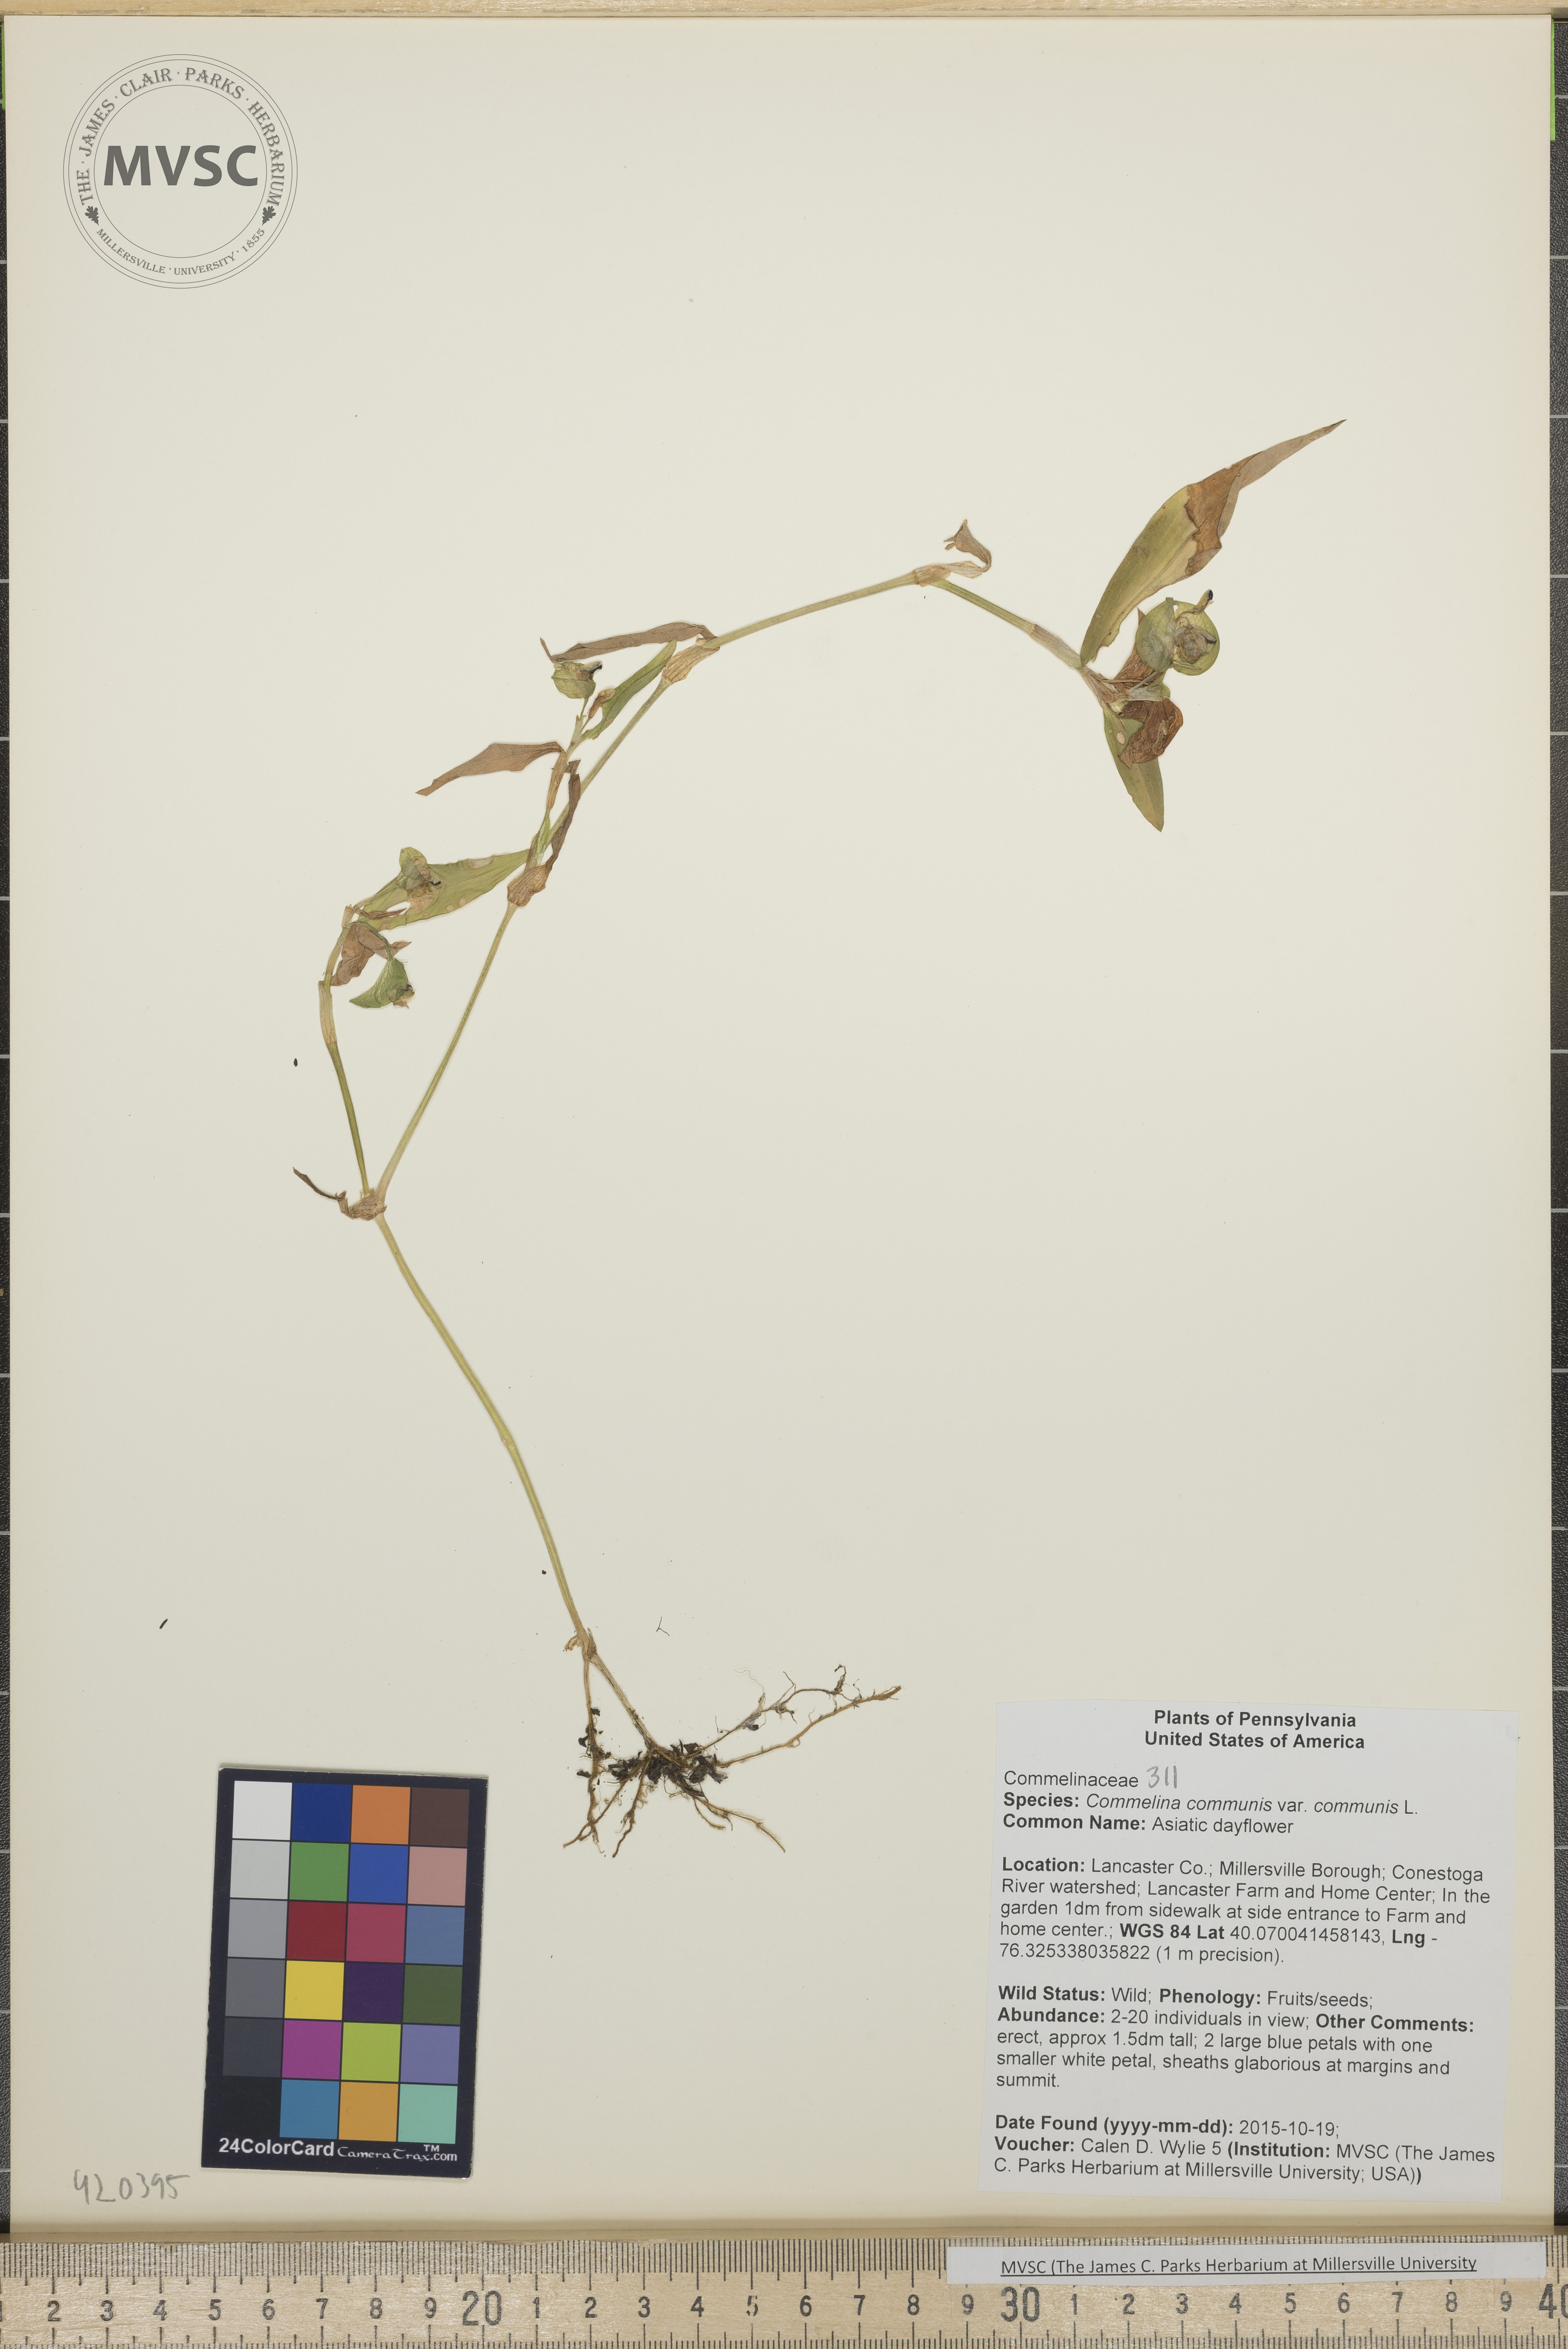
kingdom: Plantae
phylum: Tracheophyta
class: Liliopsida
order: Commelinales
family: Commelinaceae
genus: Commelina
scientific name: Commelina communis
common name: Asiatic dayflower
